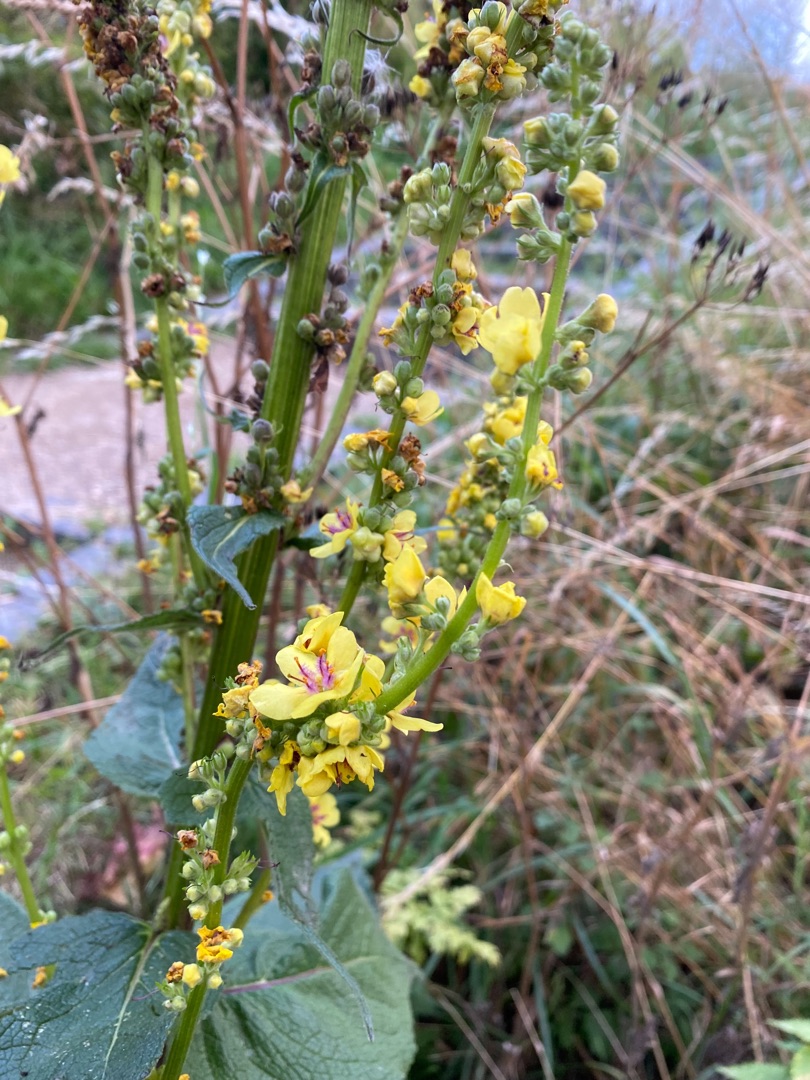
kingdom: Plantae
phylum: Tracheophyta
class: Magnoliopsida
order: Lamiales
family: Scrophulariaceae
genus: Verbascum
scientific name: Verbascum nigrum
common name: Mørk kongelys
